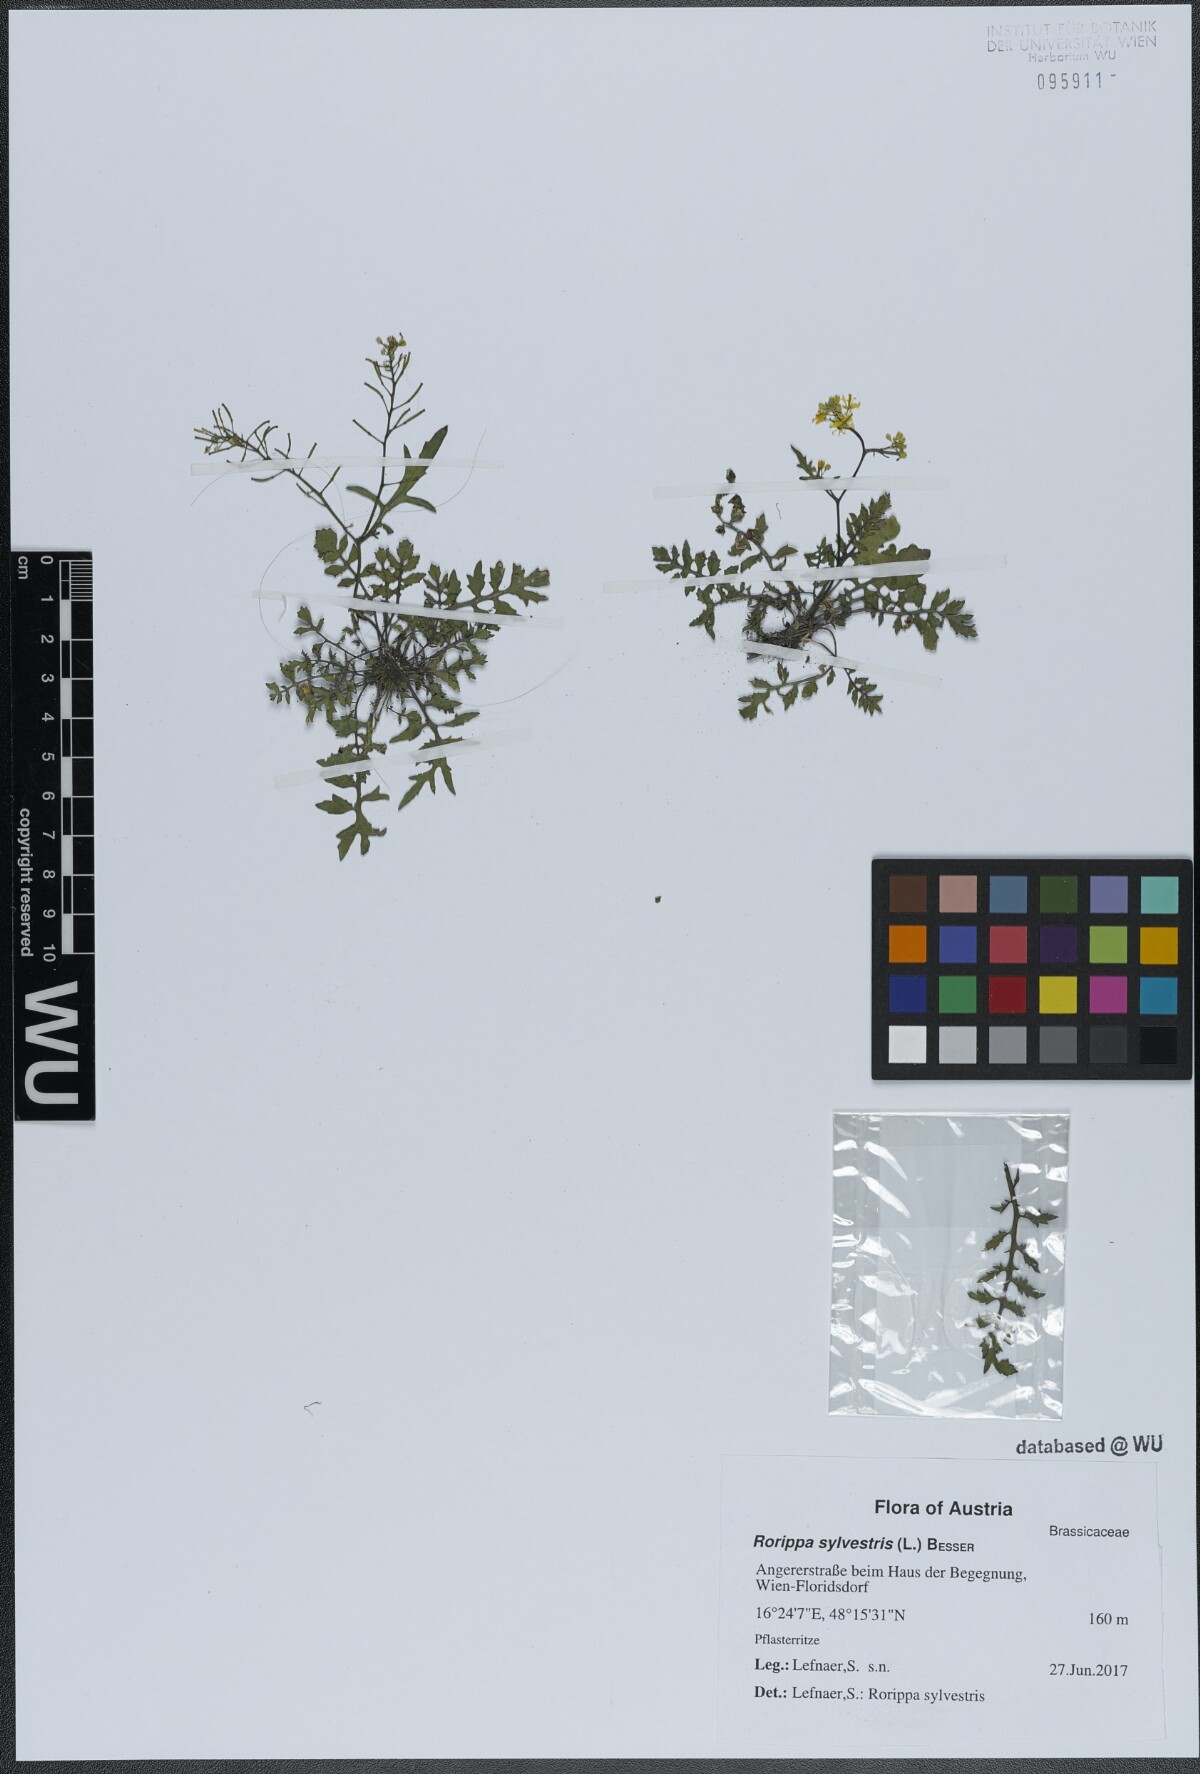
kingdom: Plantae
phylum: Tracheophyta
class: Magnoliopsida
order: Brassicales
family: Brassicaceae
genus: Rorippa
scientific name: Rorippa sylvestris
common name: Creeping yellowcress
